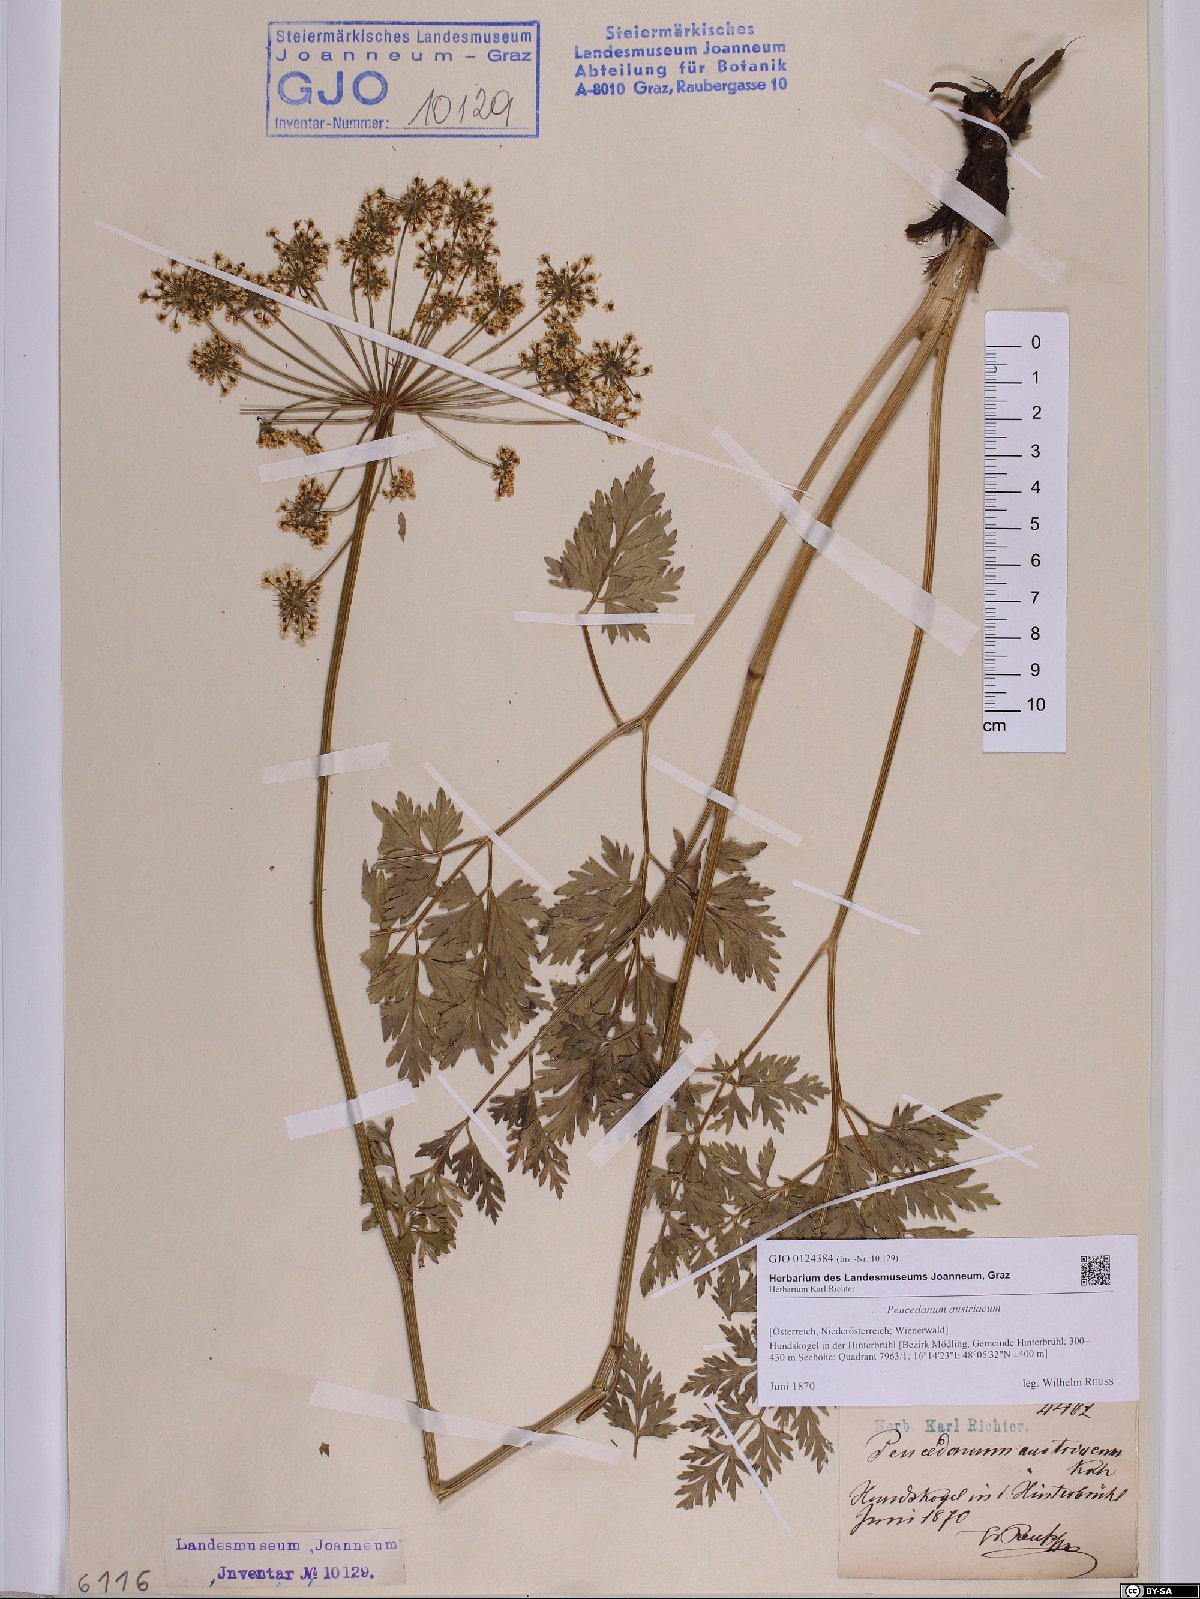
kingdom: Plantae
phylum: Tracheophyta
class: Magnoliopsida
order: Apiales
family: Apiaceae
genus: Peucedanum
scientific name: Peucedanum austriacum
